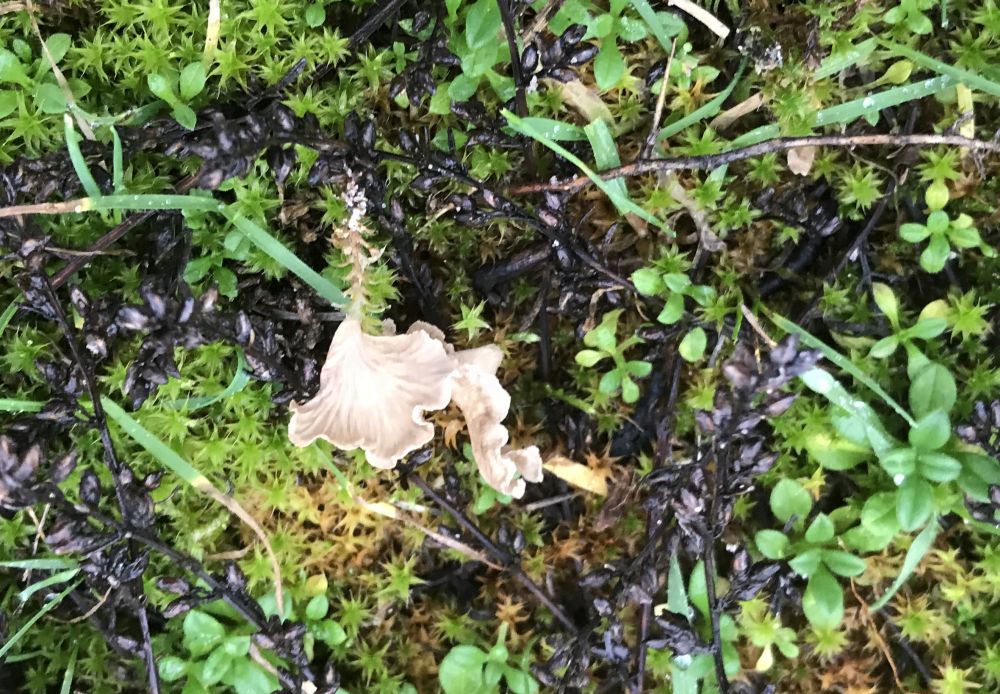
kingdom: Fungi
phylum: Basidiomycota
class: Agaricomycetes
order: Agaricales
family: Hygrophoraceae
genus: Arrhenia
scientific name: Arrhenia spathulata
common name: skæv fontænehat
